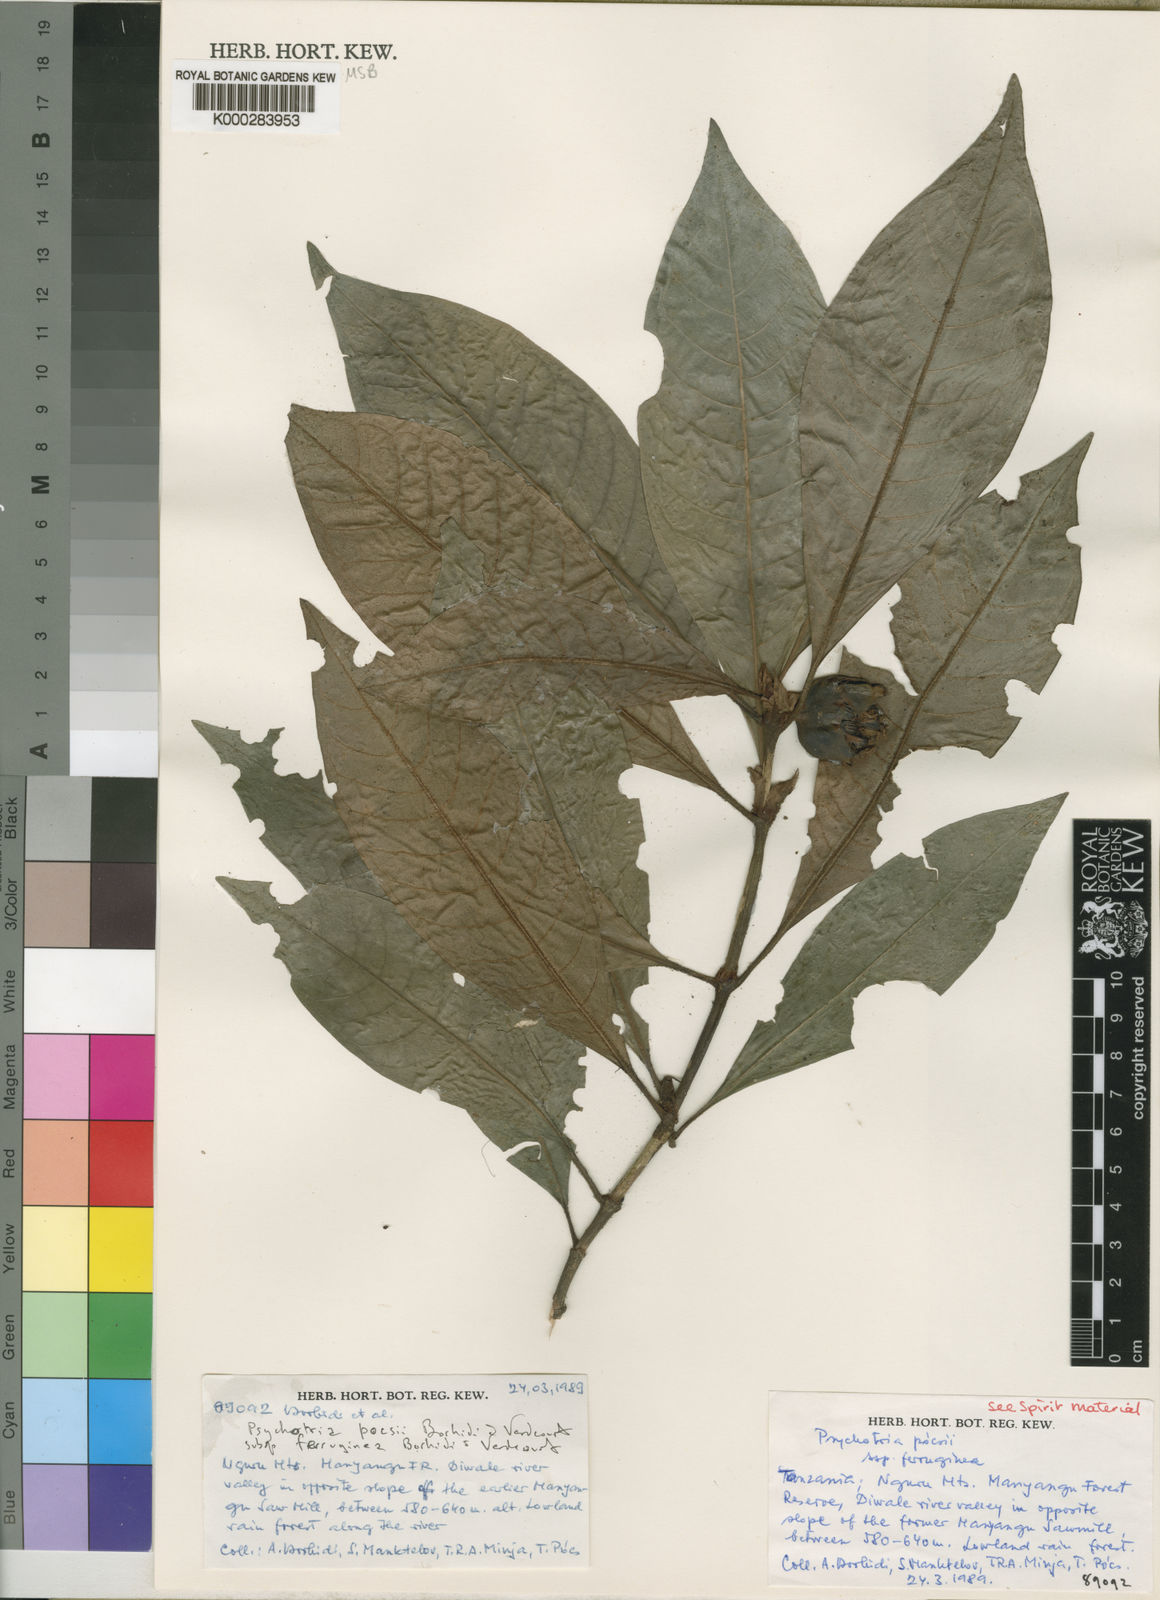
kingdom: Plantae
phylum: Tracheophyta
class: Magnoliopsida
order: Gentianales
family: Rubiaceae
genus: Psychotria
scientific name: Psychotria pocsii
